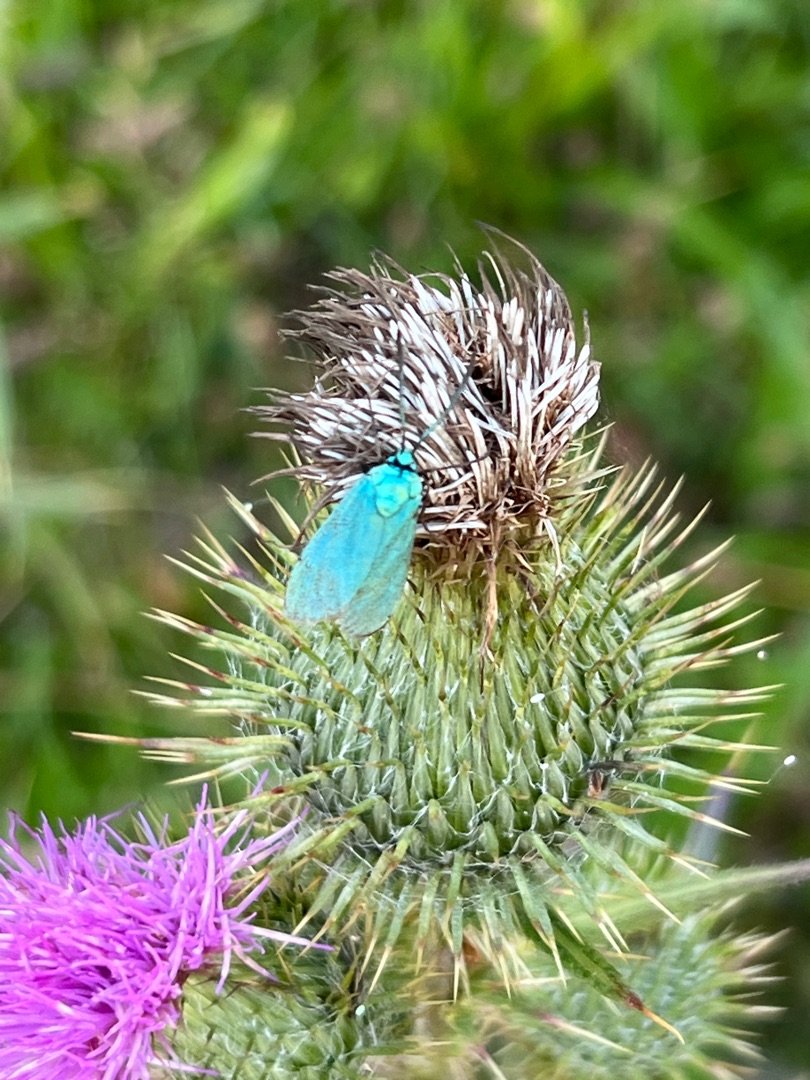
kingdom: Animalia
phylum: Arthropoda
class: Insecta
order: Lepidoptera
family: Zygaenidae
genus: Adscita
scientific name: Adscita statices
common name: Metalvinge
